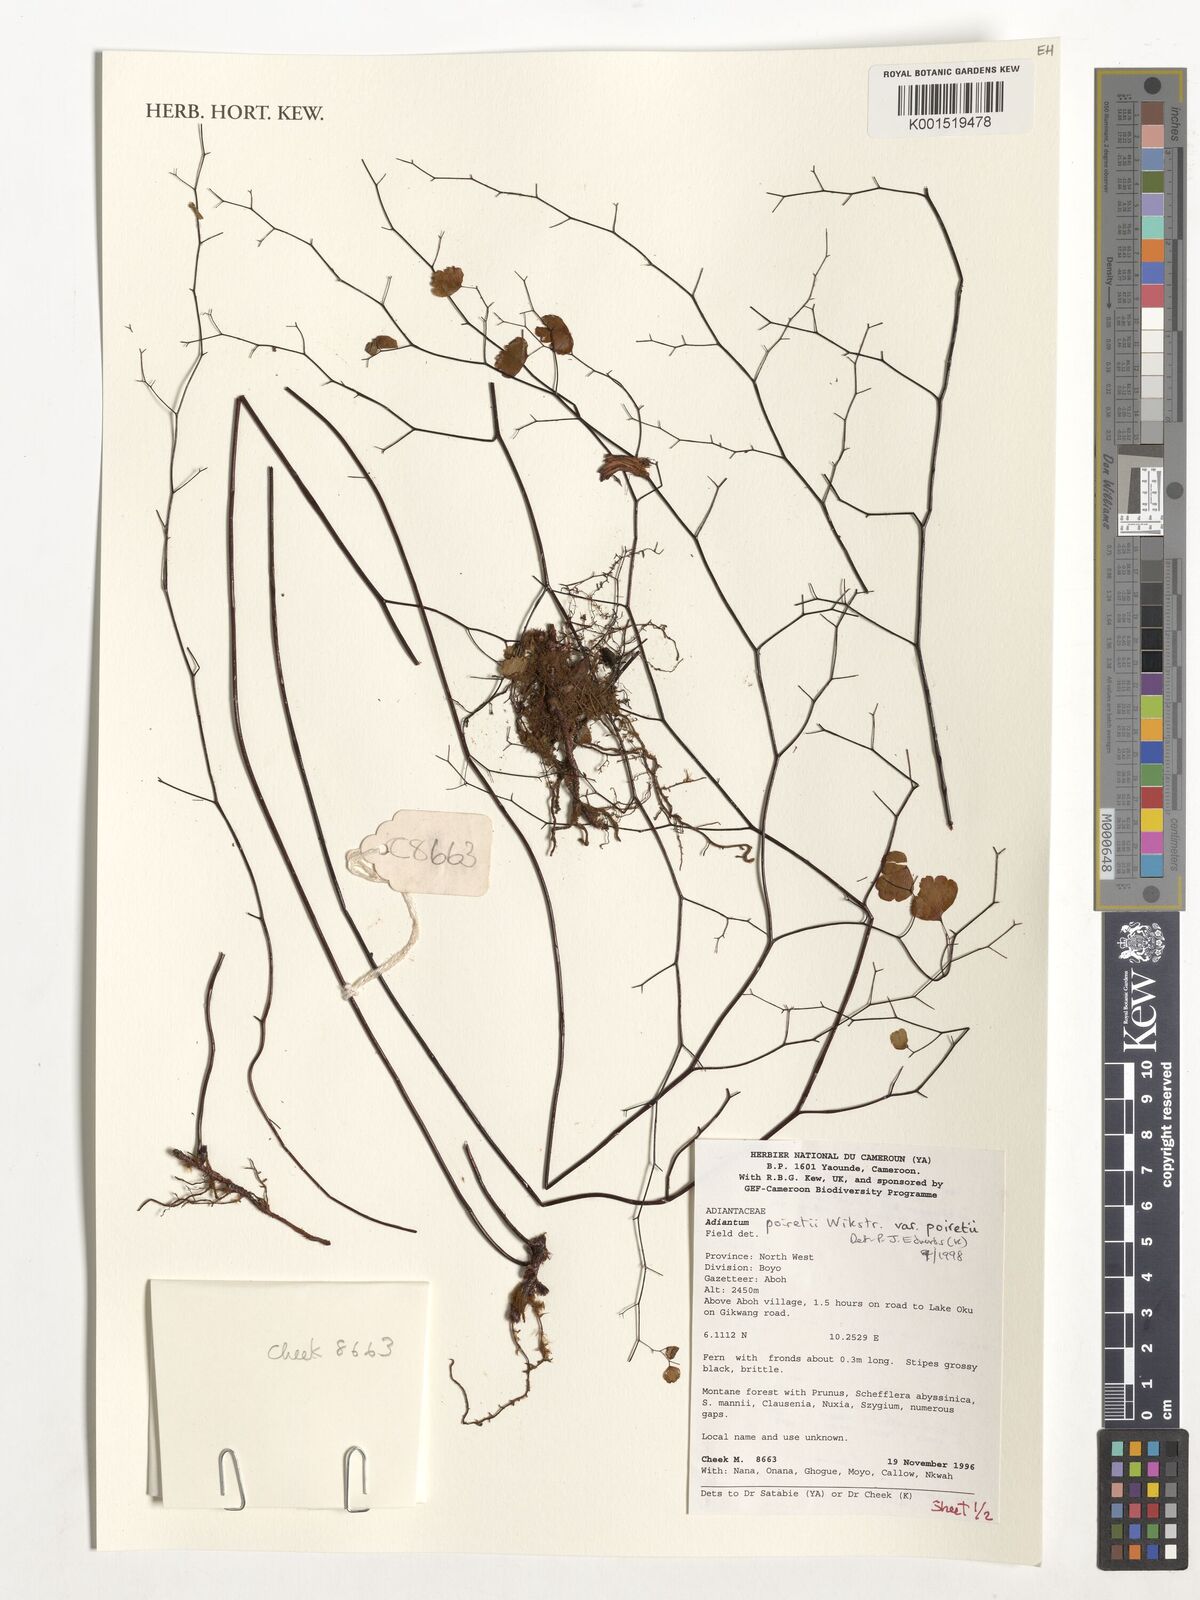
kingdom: Plantae
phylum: Tracheophyta
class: Polypodiopsida
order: Polypodiales
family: Pteridaceae
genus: Adiantum
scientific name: Adiantum poiretii
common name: Mexican maidenhair
